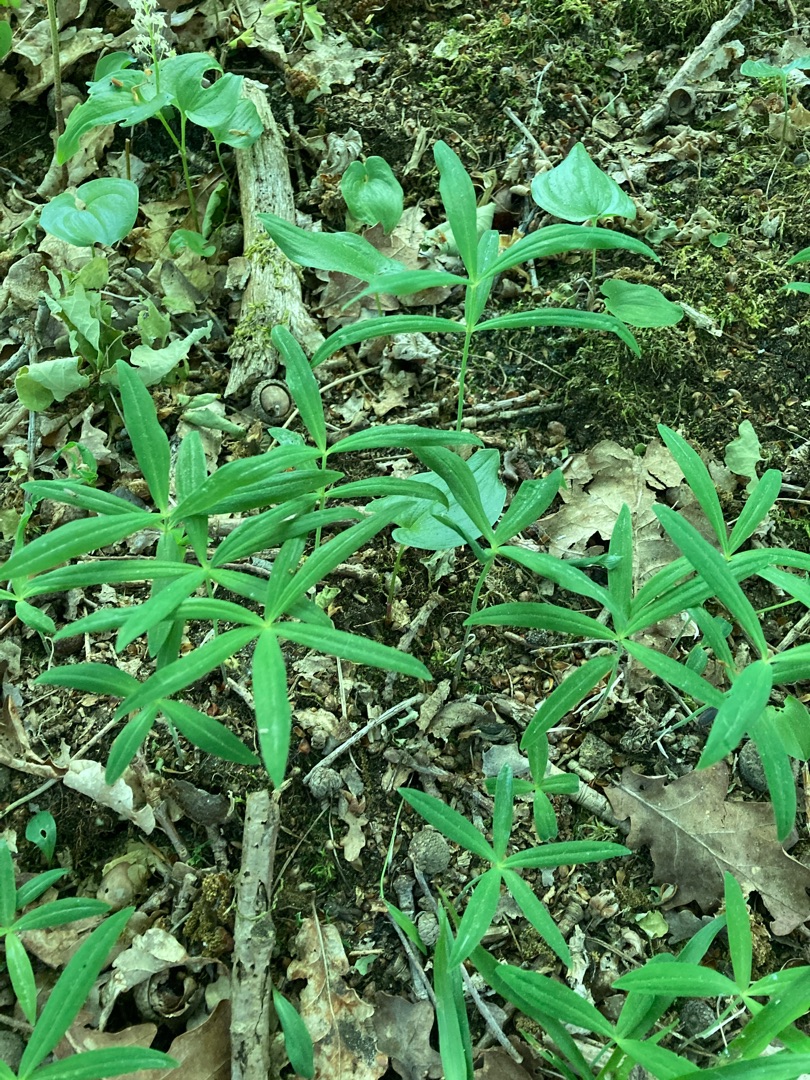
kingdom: Plantae
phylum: Tracheophyta
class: Liliopsida
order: Asparagales
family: Asparagaceae
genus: Polygonatum
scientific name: Polygonatum verticillatum
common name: Krans-konval
